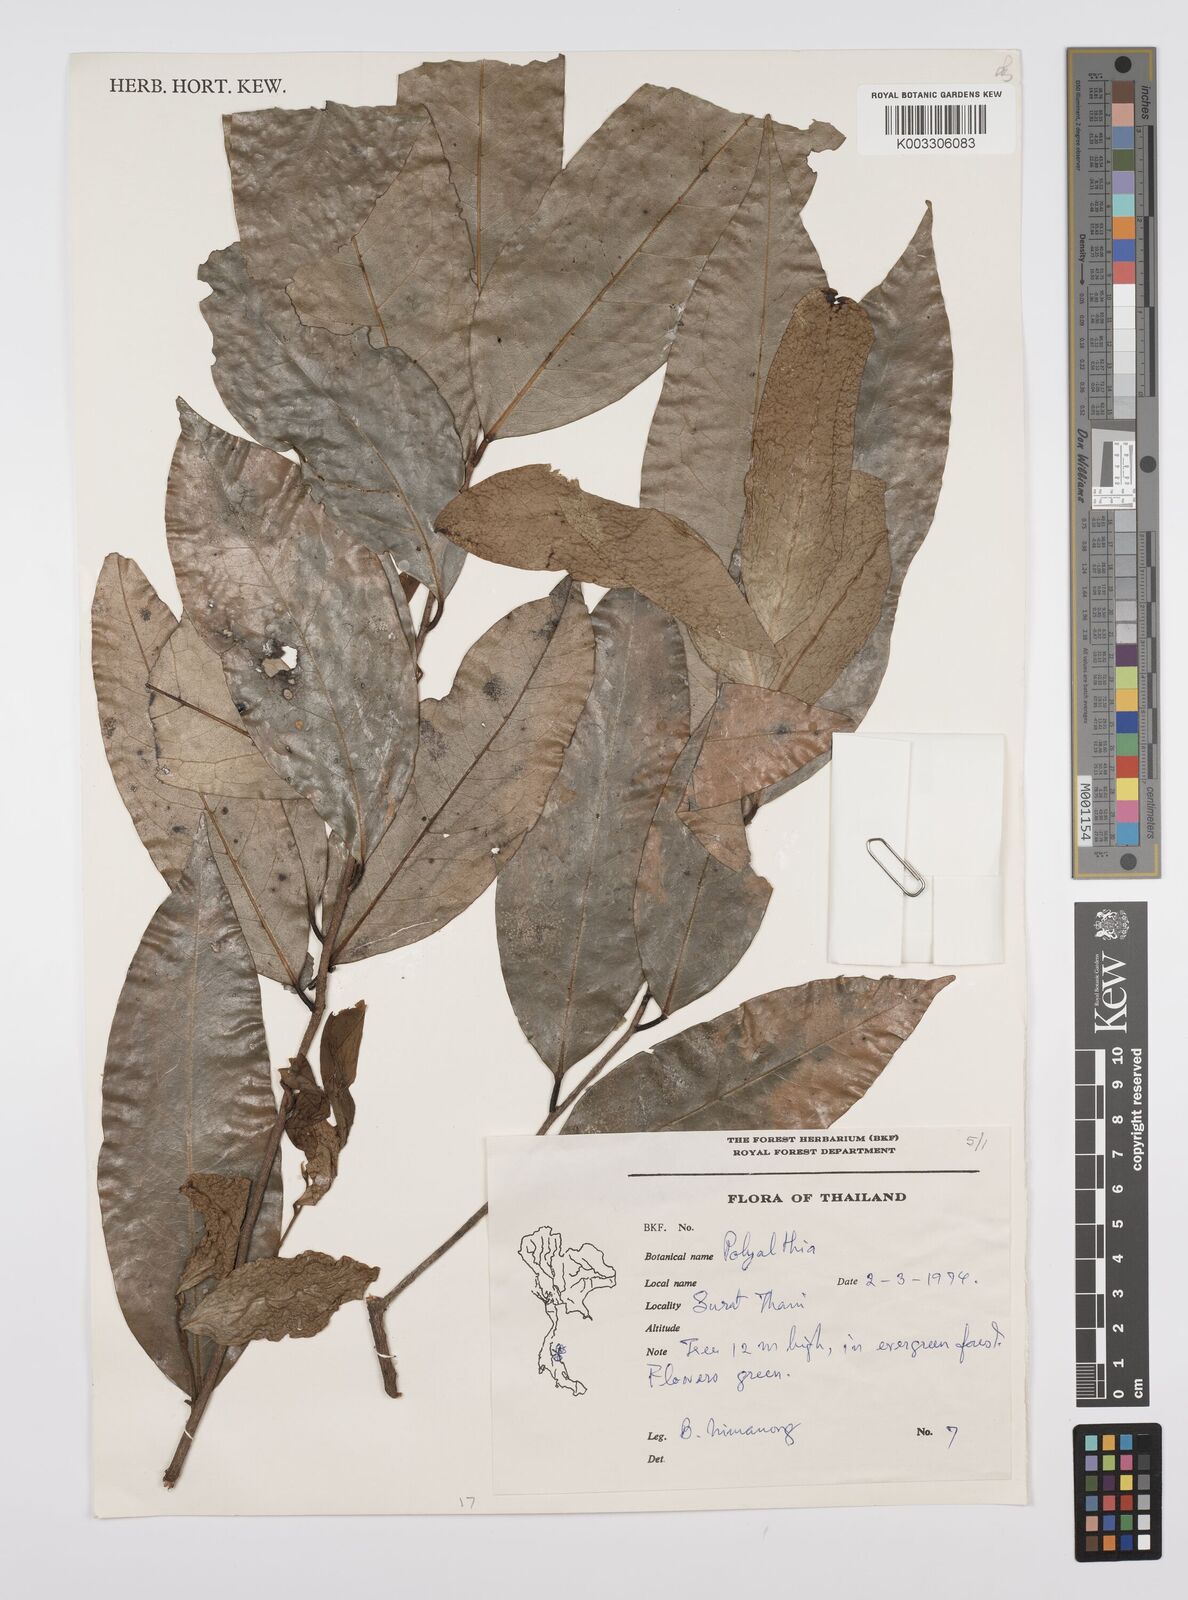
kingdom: Plantae
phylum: Tracheophyta
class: Magnoliopsida
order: Magnoliales
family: Annonaceae
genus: Huberantha
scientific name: Huberantha
